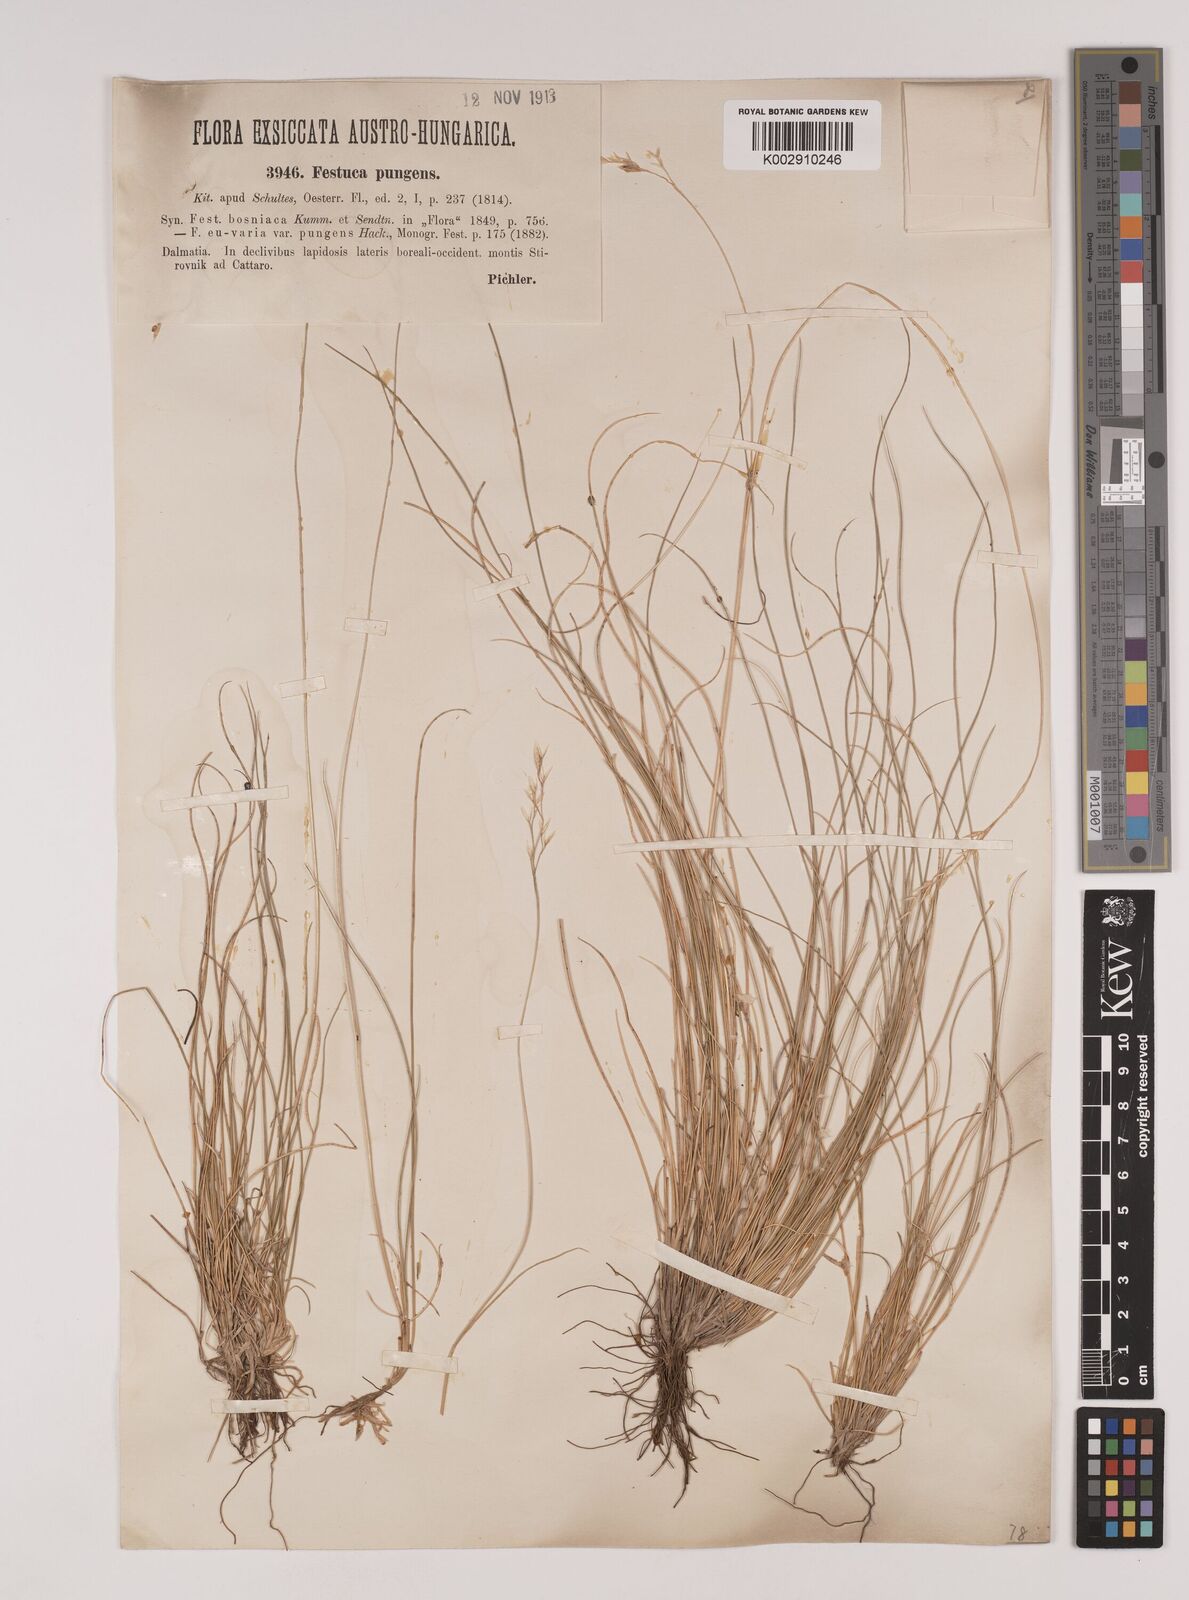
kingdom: Plantae
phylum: Tracheophyta
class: Liliopsida
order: Poales
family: Poaceae
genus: Festuca
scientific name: Festuca bosniaca
